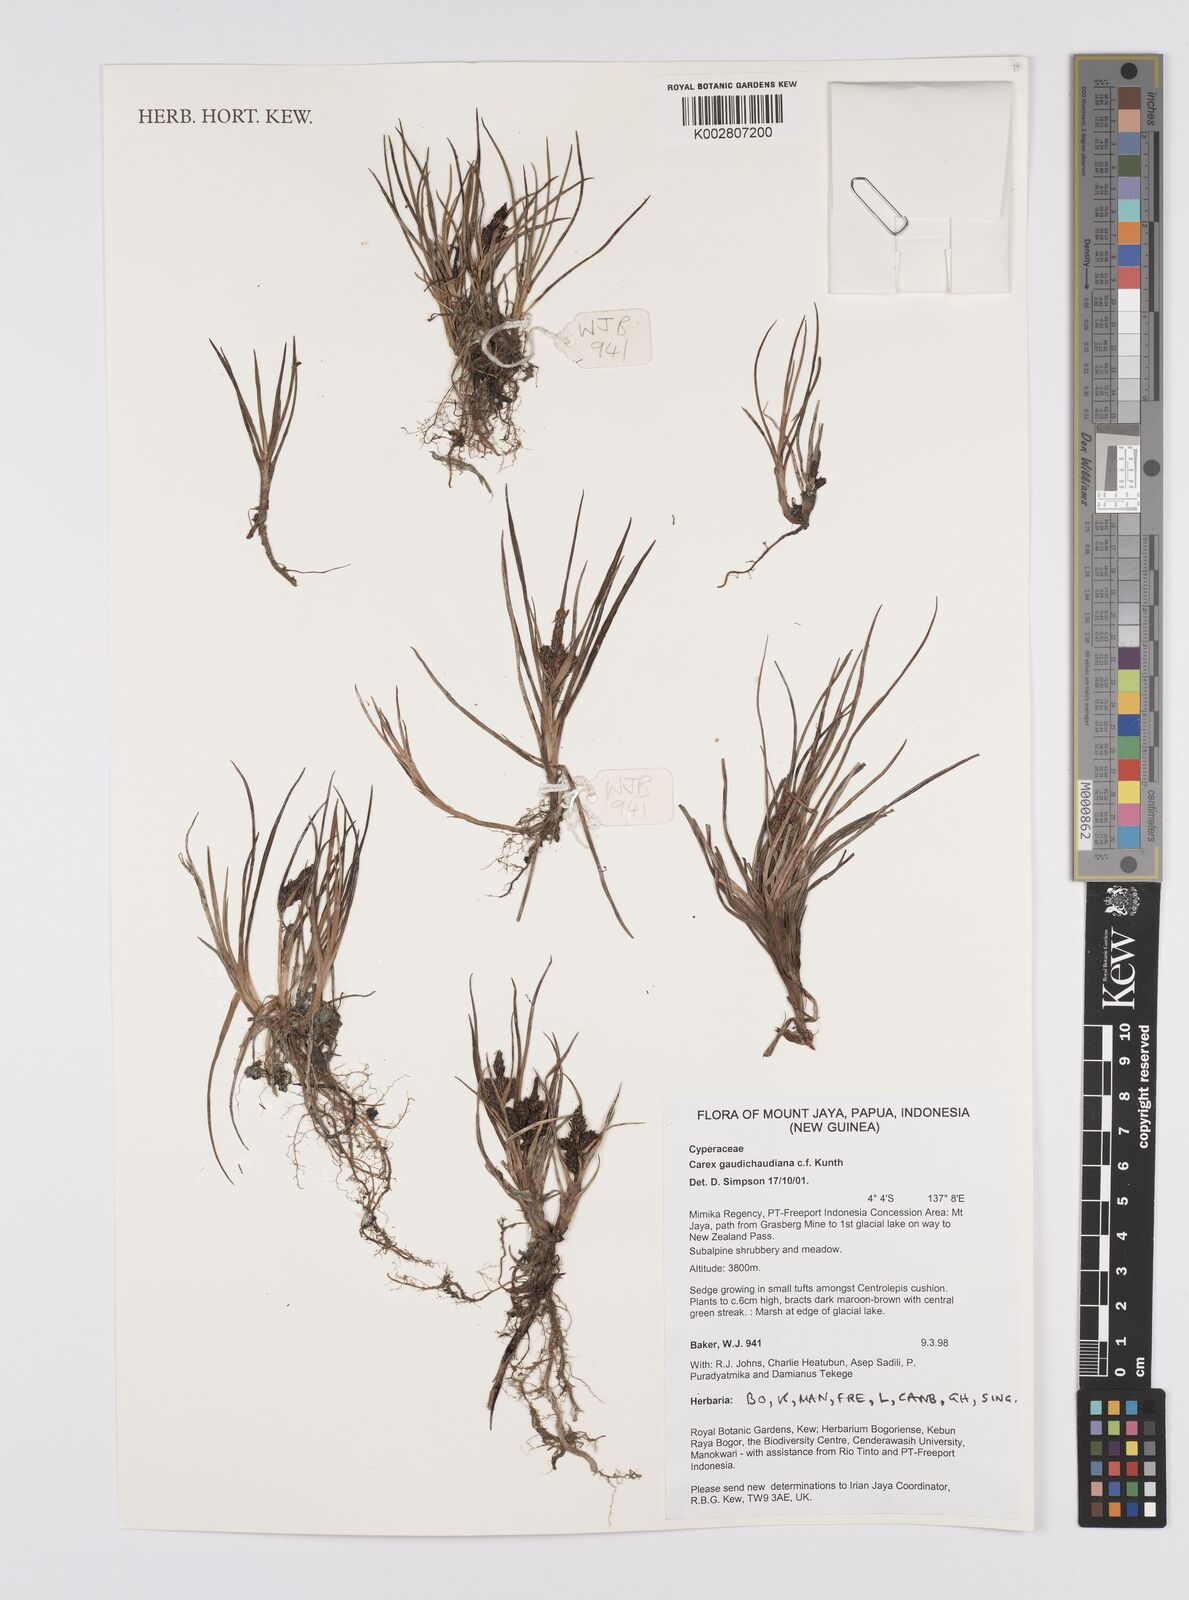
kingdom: Plantae
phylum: Tracheophyta
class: Liliopsida
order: Poales
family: Cyperaceae
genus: Carex
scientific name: Carex gaudichaudiana
